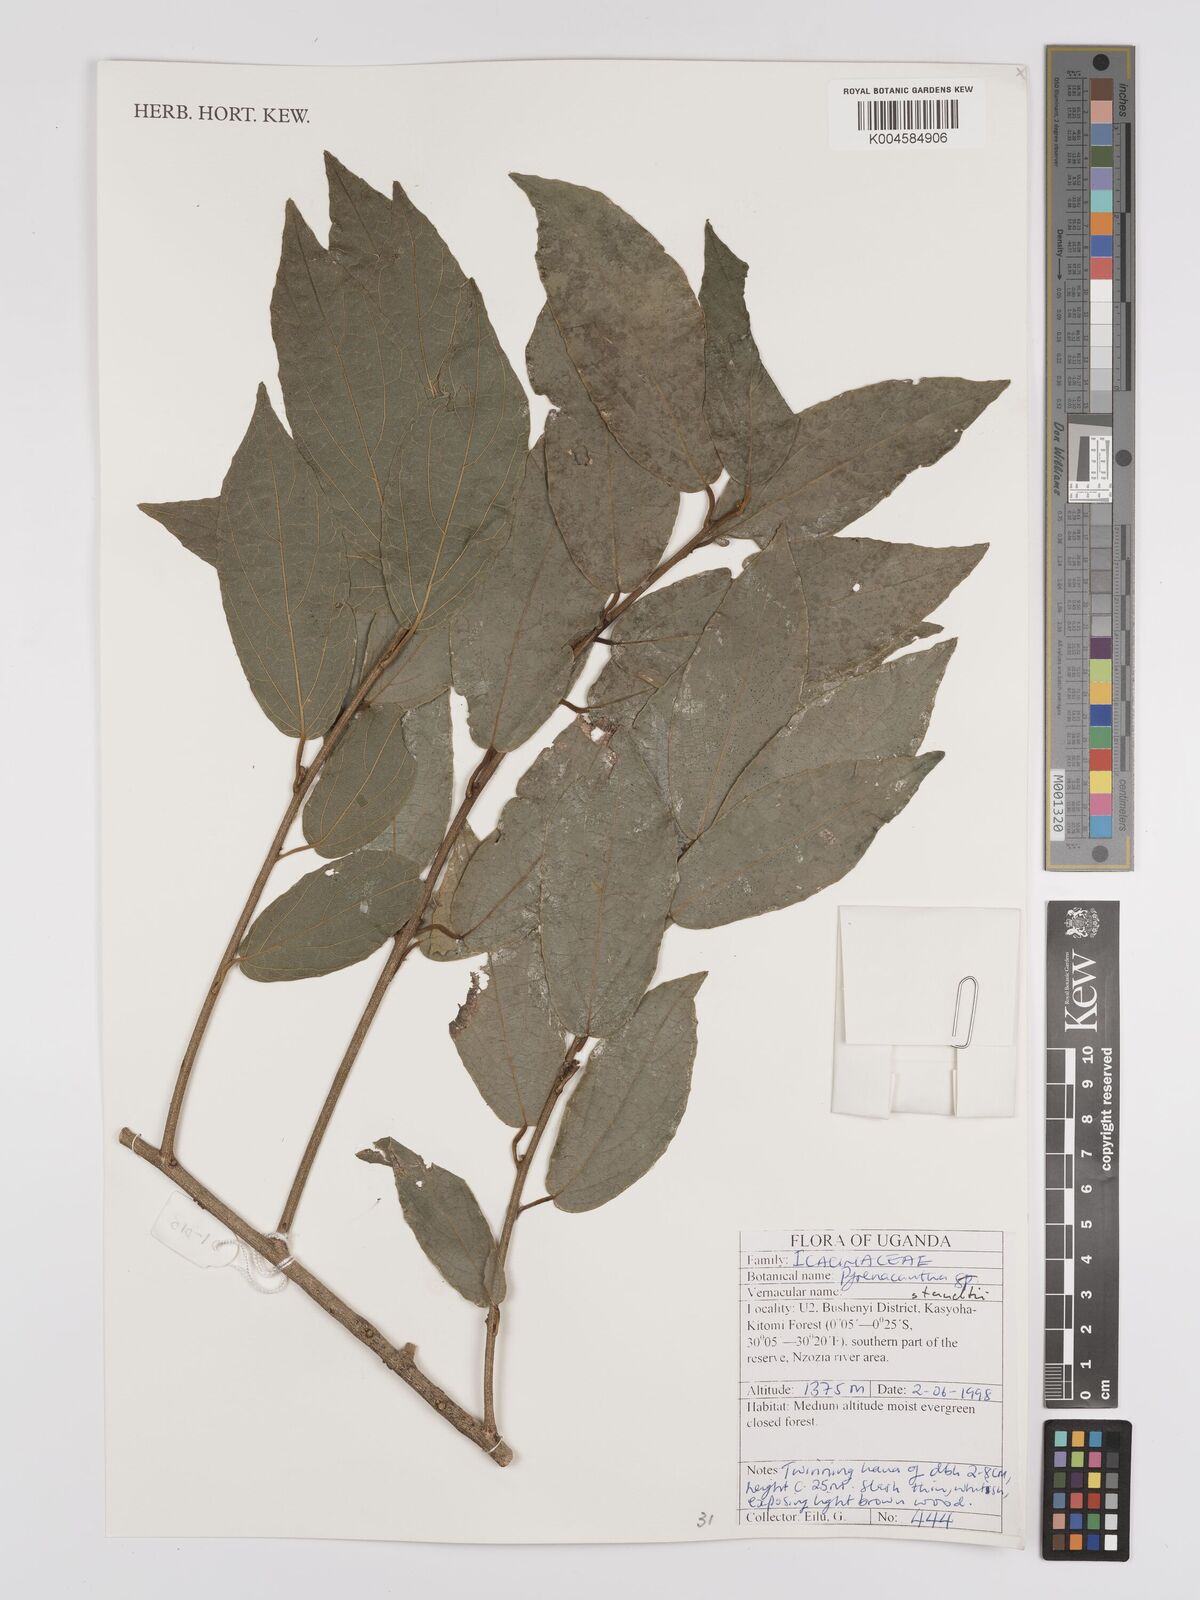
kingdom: Plantae
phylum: Tracheophyta
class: Magnoliopsida
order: Icacinales
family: Icacinaceae
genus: Pyrenacantha
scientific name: Pyrenacantha staudtii
